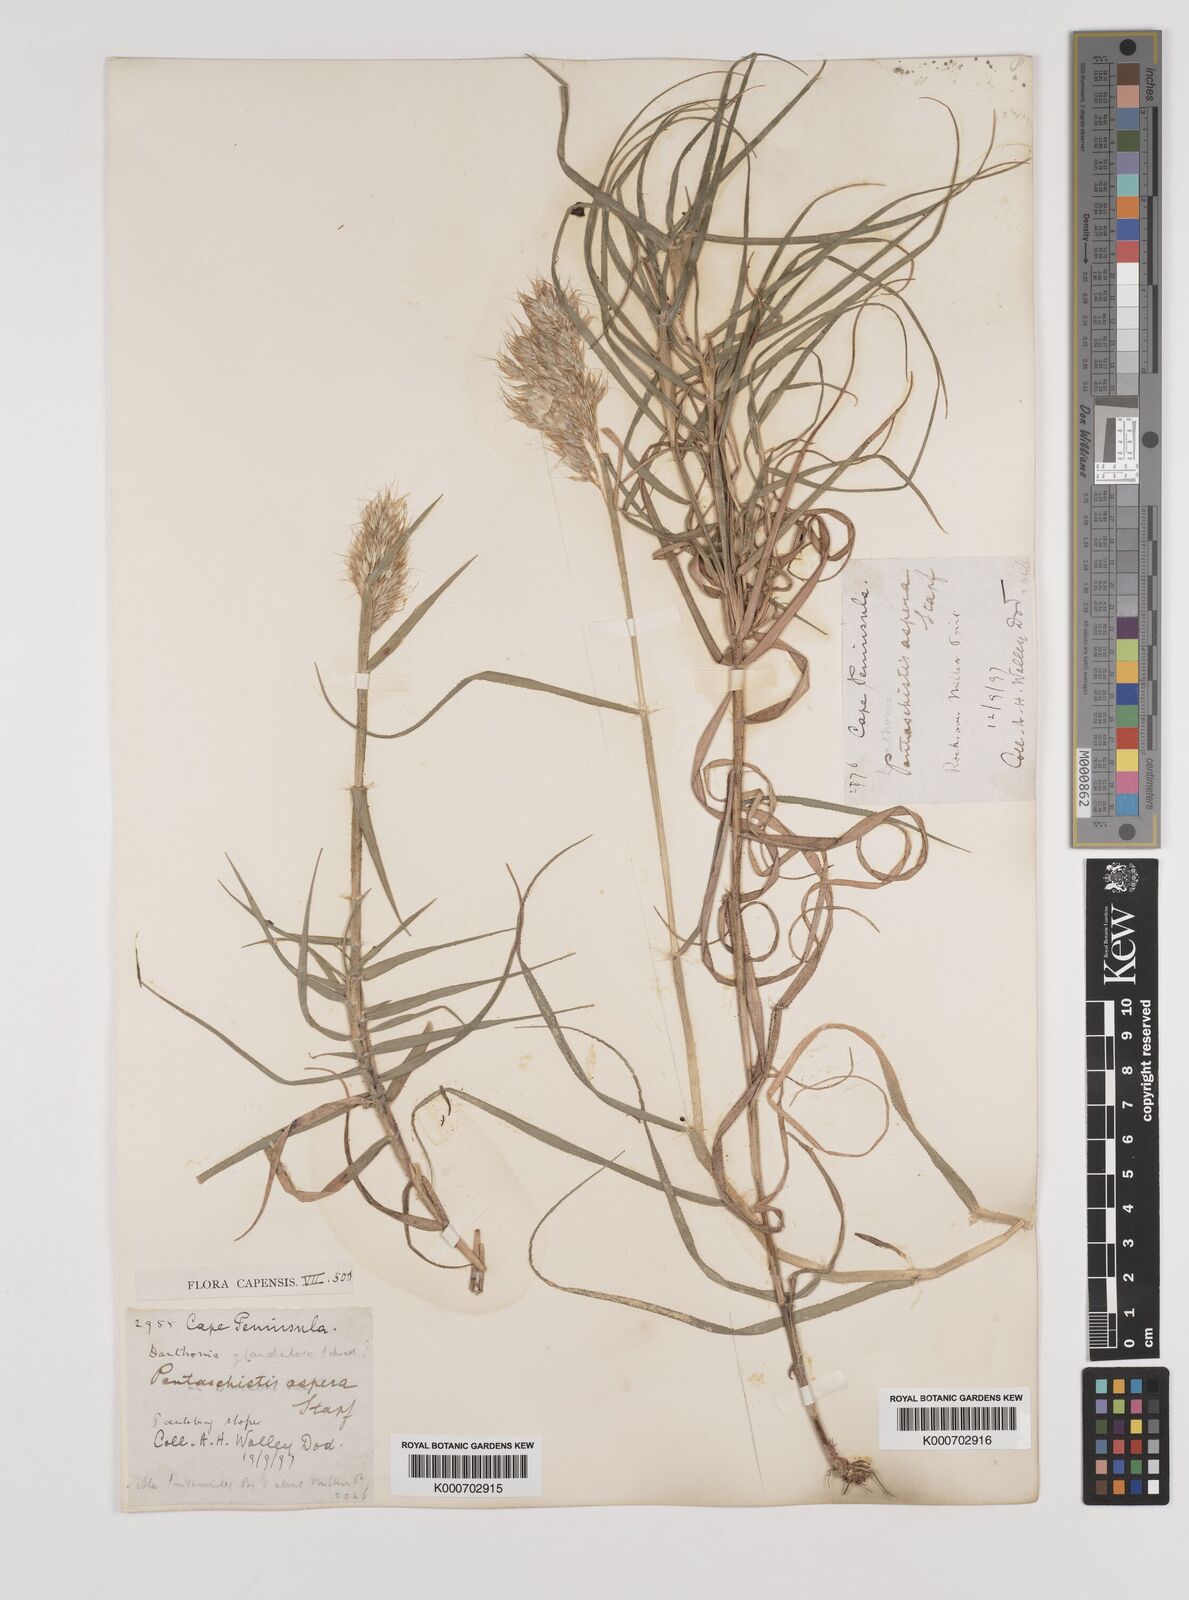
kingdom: Plantae
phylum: Tracheophyta
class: Liliopsida
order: Poales
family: Poaceae
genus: Pentameris
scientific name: Pentameris aspera
